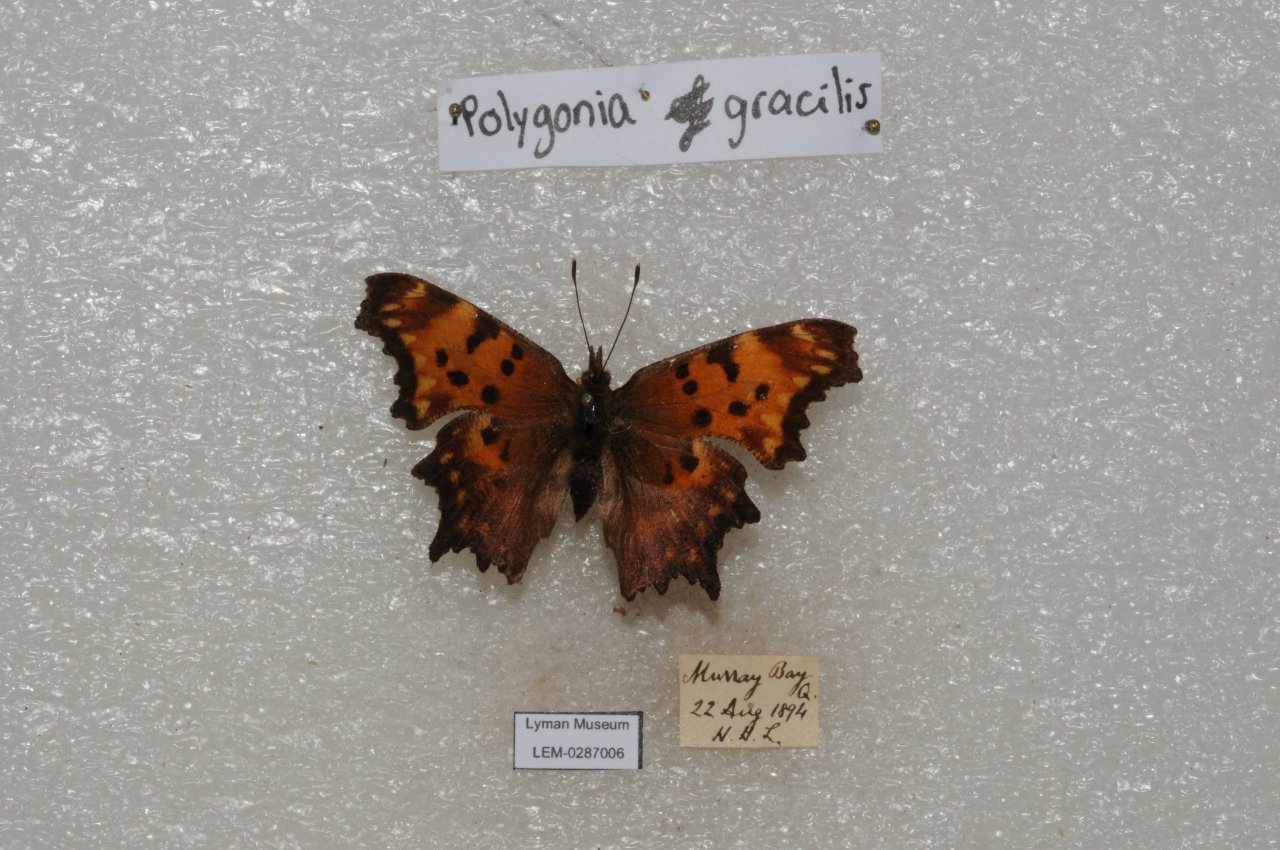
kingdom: Animalia
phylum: Arthropoda
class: Insecta
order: Lepidoptera
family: Nymphalidae
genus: Polygonia
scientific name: Polygonia gracilis
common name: Hoary Comma
